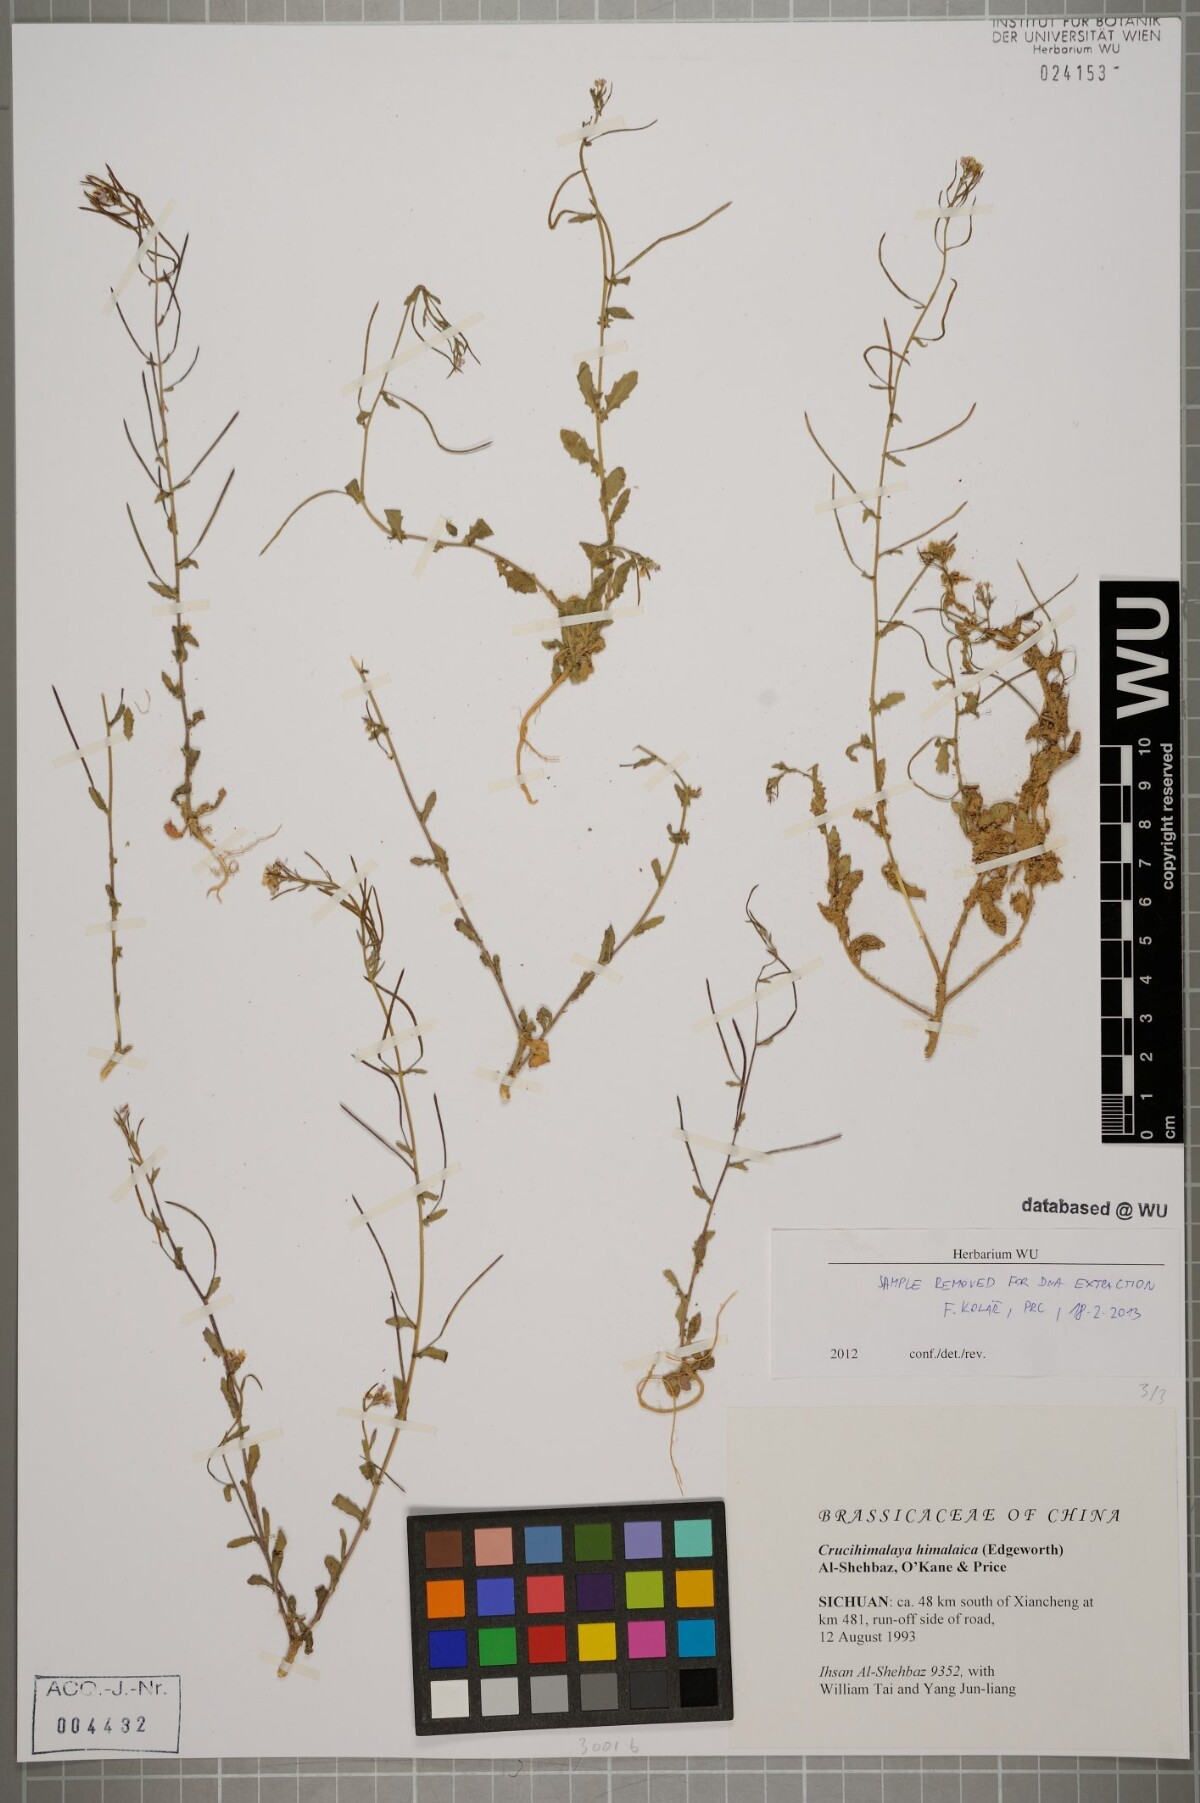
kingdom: Plantae
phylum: Tracheophyta
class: Magnoliopsida
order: Brassicales
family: Brassicaceae
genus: Crucihimalaya
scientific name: Crucihimalaya himalaica
